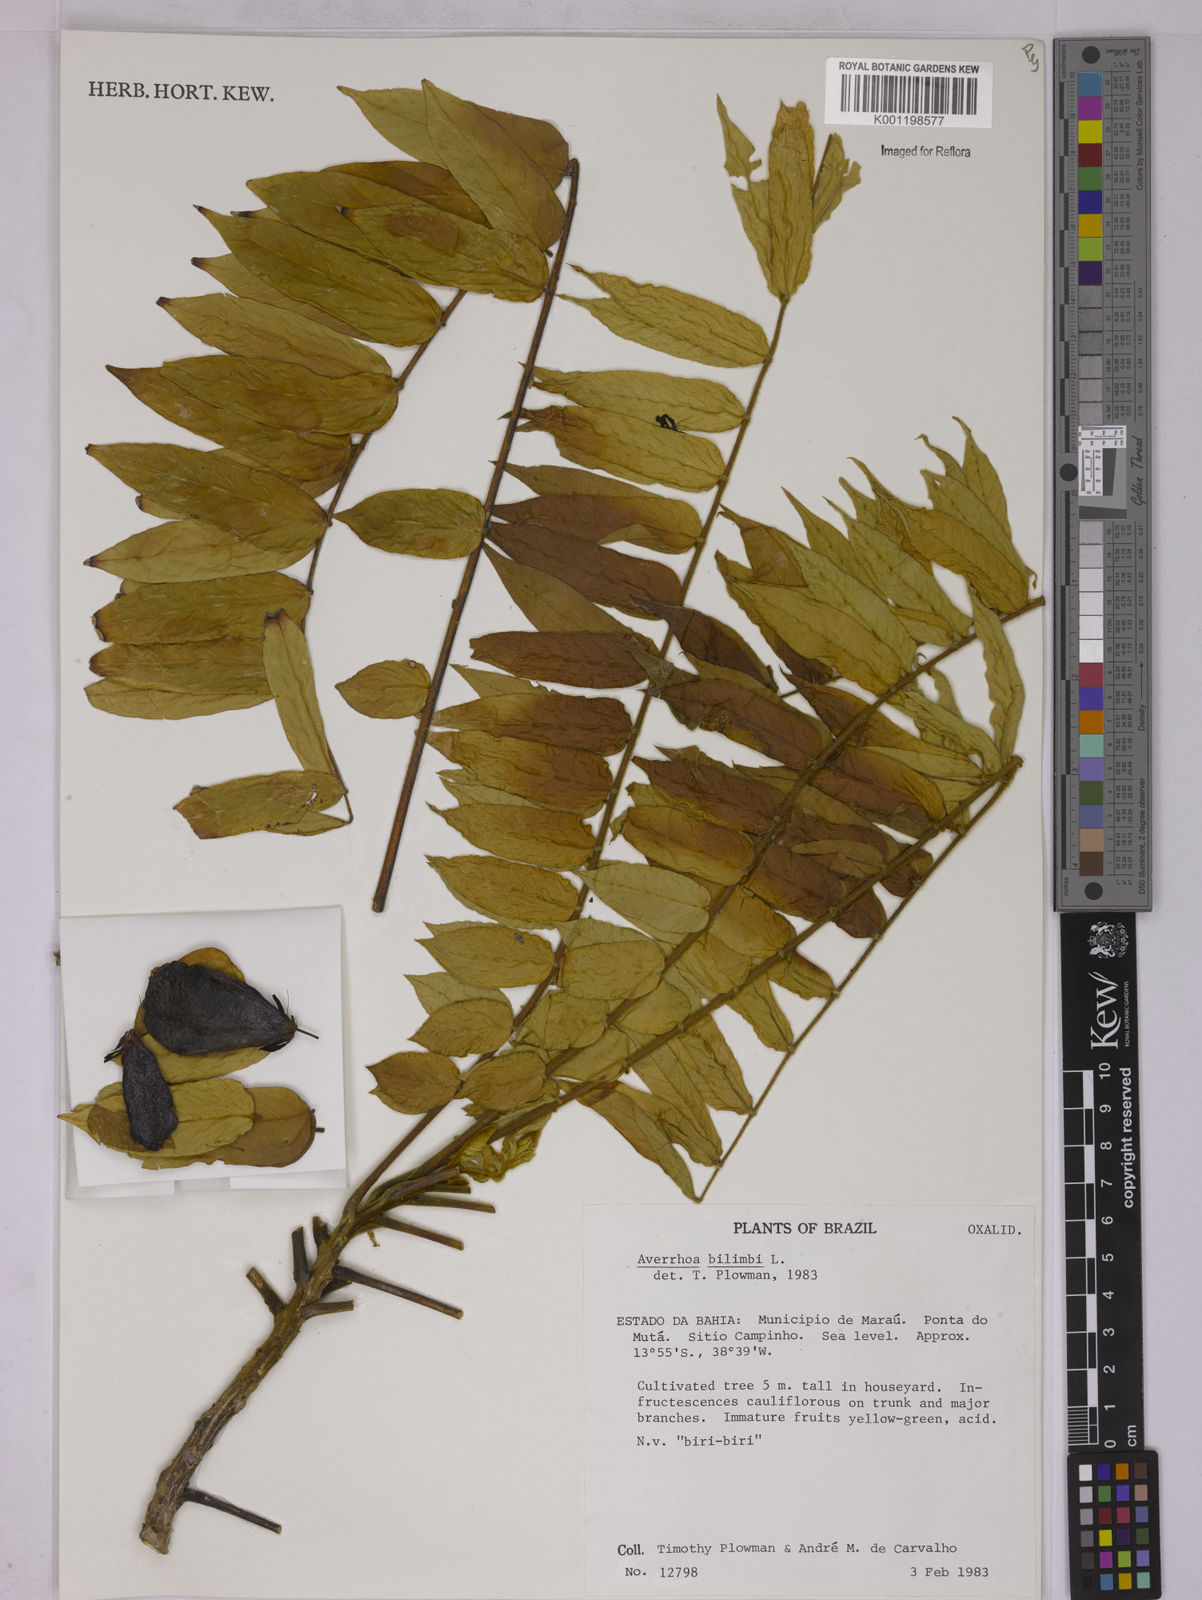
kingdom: Plantae
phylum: Tracheophyta
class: Magnoliopsida
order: Oxalidales
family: Oxalidaceae
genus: Averrhoa
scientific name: Averrhoa bilimbi
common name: Bilimbi
